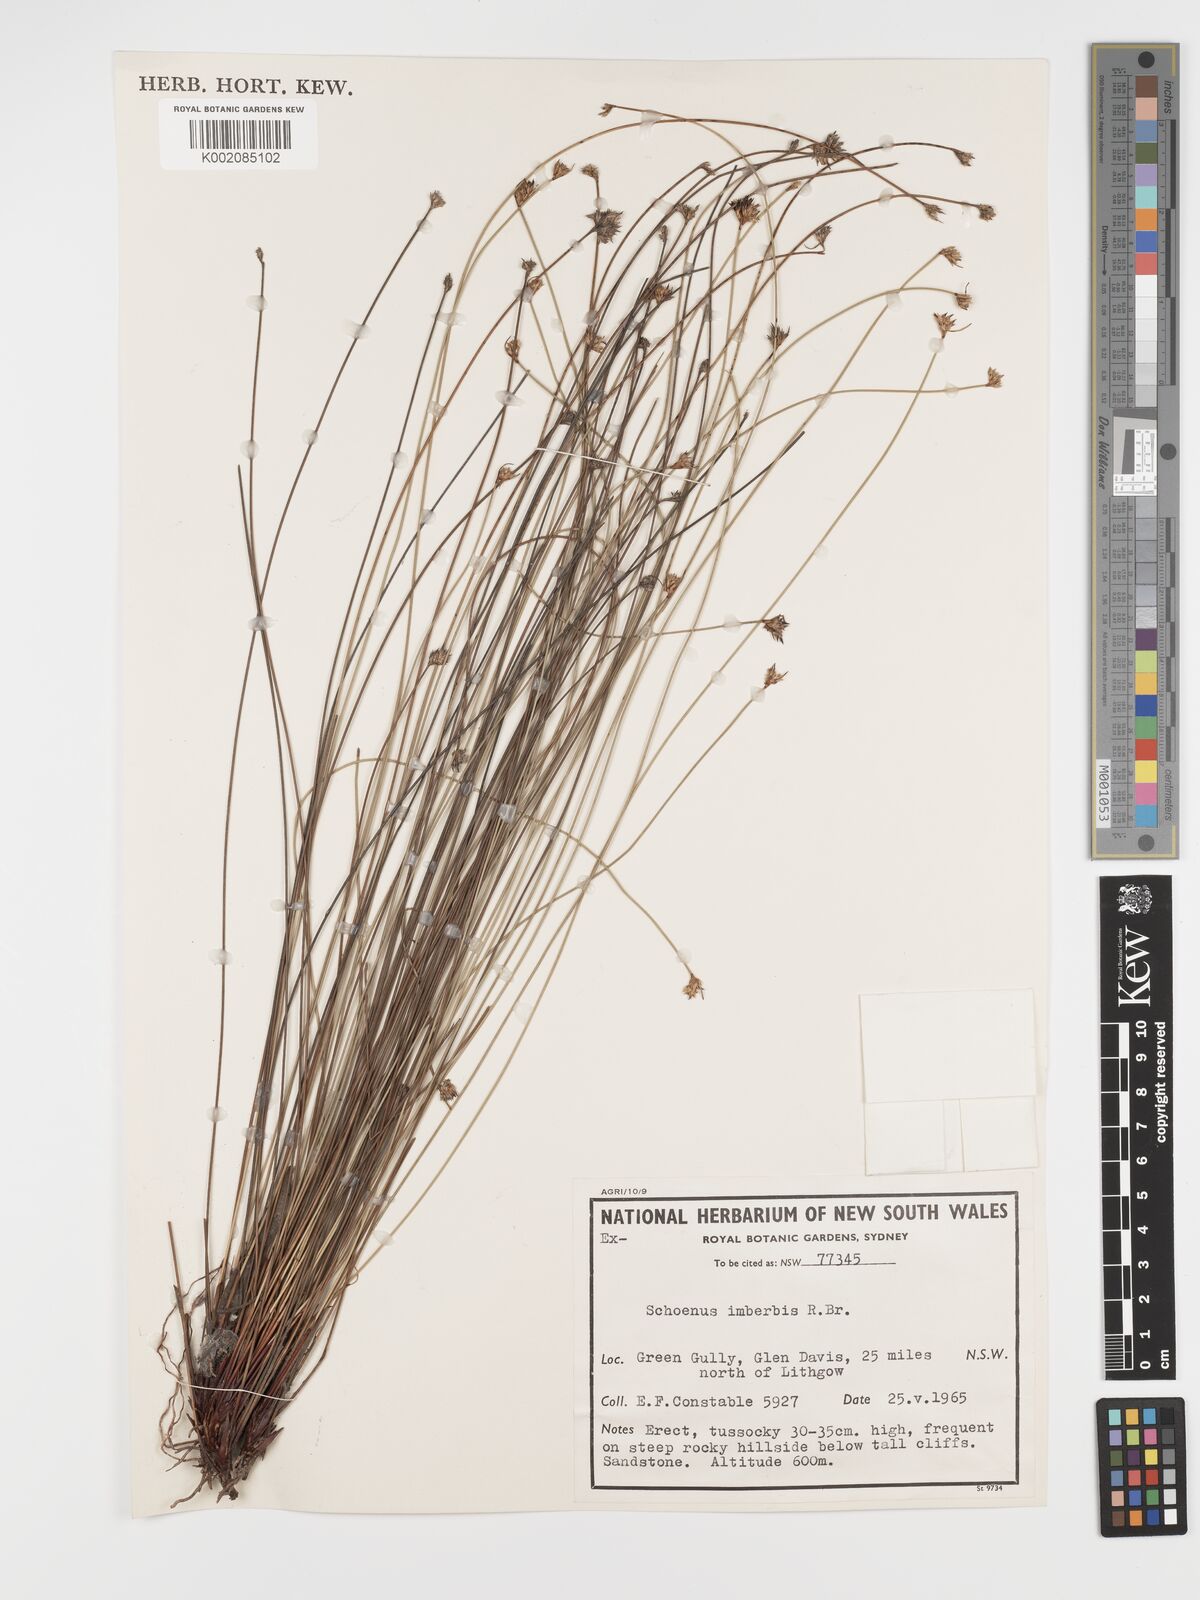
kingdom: Plantae
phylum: Tracheophyta
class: Liliopsida
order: Poales
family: Cyperaceae
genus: Schoenus
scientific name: Schoenus imberbis
